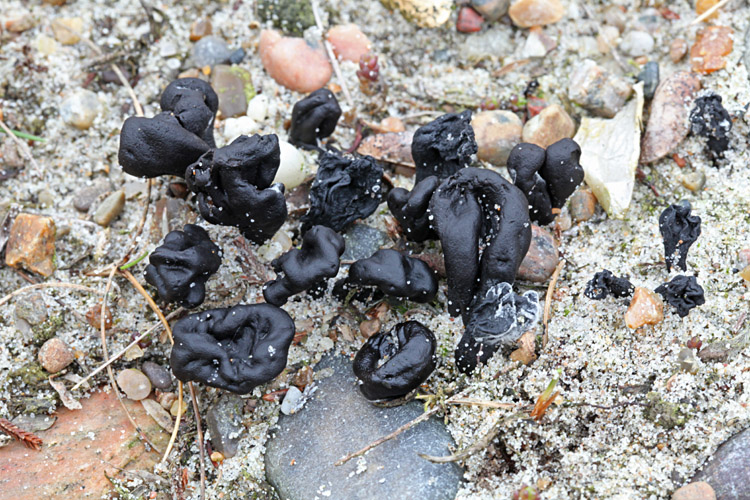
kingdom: Fungi
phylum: Ascomycota
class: Geoglossomycetes
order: Geoglossales
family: Geoglossaceae
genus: Sabuloglossum
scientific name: Sabuloglossum arenarium
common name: klit-jordtunge
